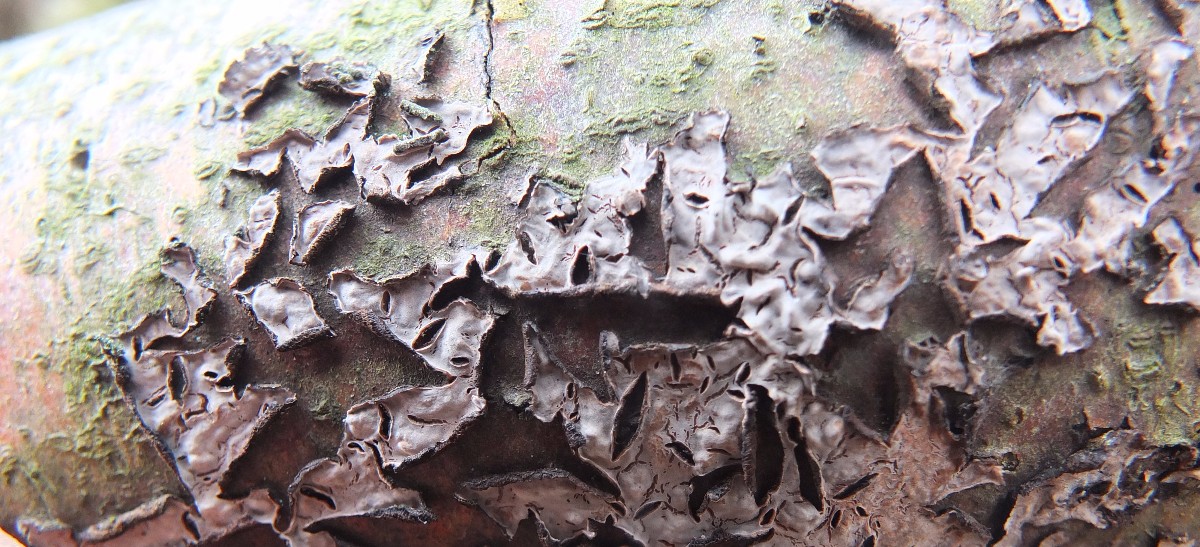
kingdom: Fungi
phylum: Basidiomycota
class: Agaricomycetes
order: Russulales
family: Peniophoraceae
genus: Peniophora
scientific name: Peniophora quercina
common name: ege-voksskind
